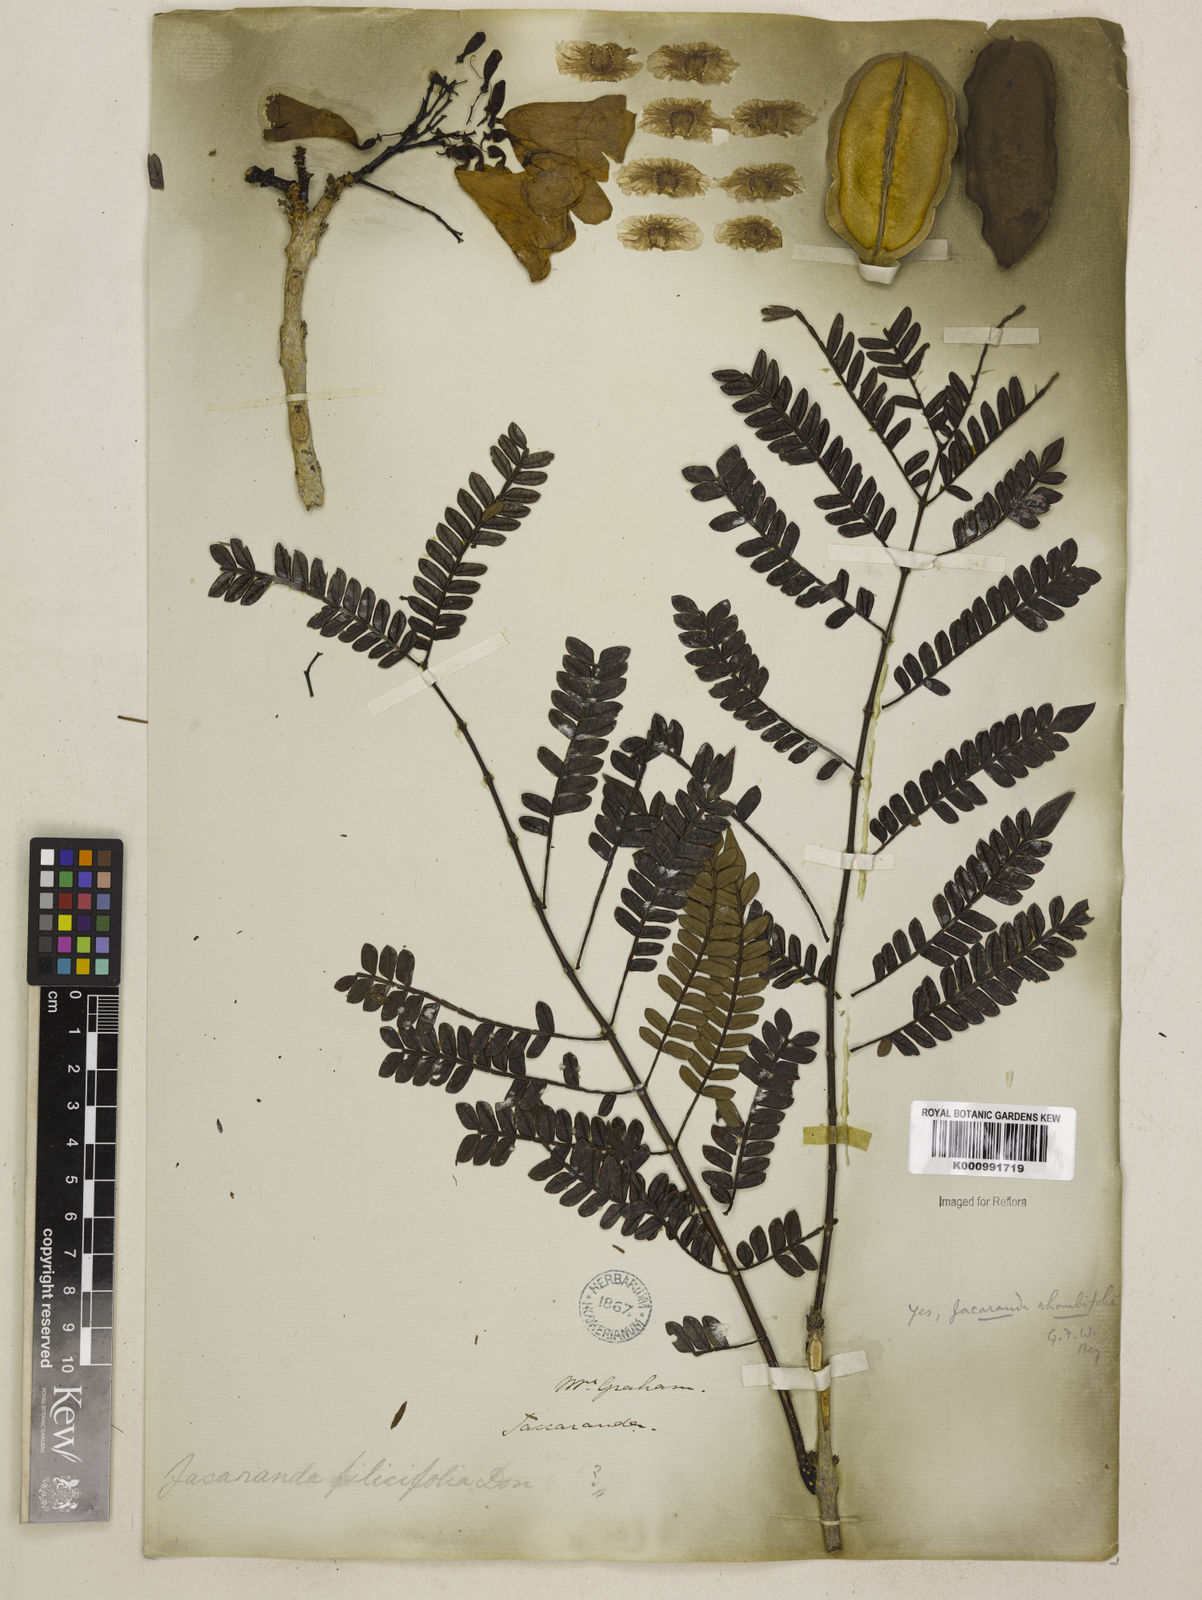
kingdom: Plantae
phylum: Tracheophyta
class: Magnoliopsida
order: Lamiales
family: Bignoniaceae
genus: Jacaranda
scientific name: Jacaranda obtusifolia
